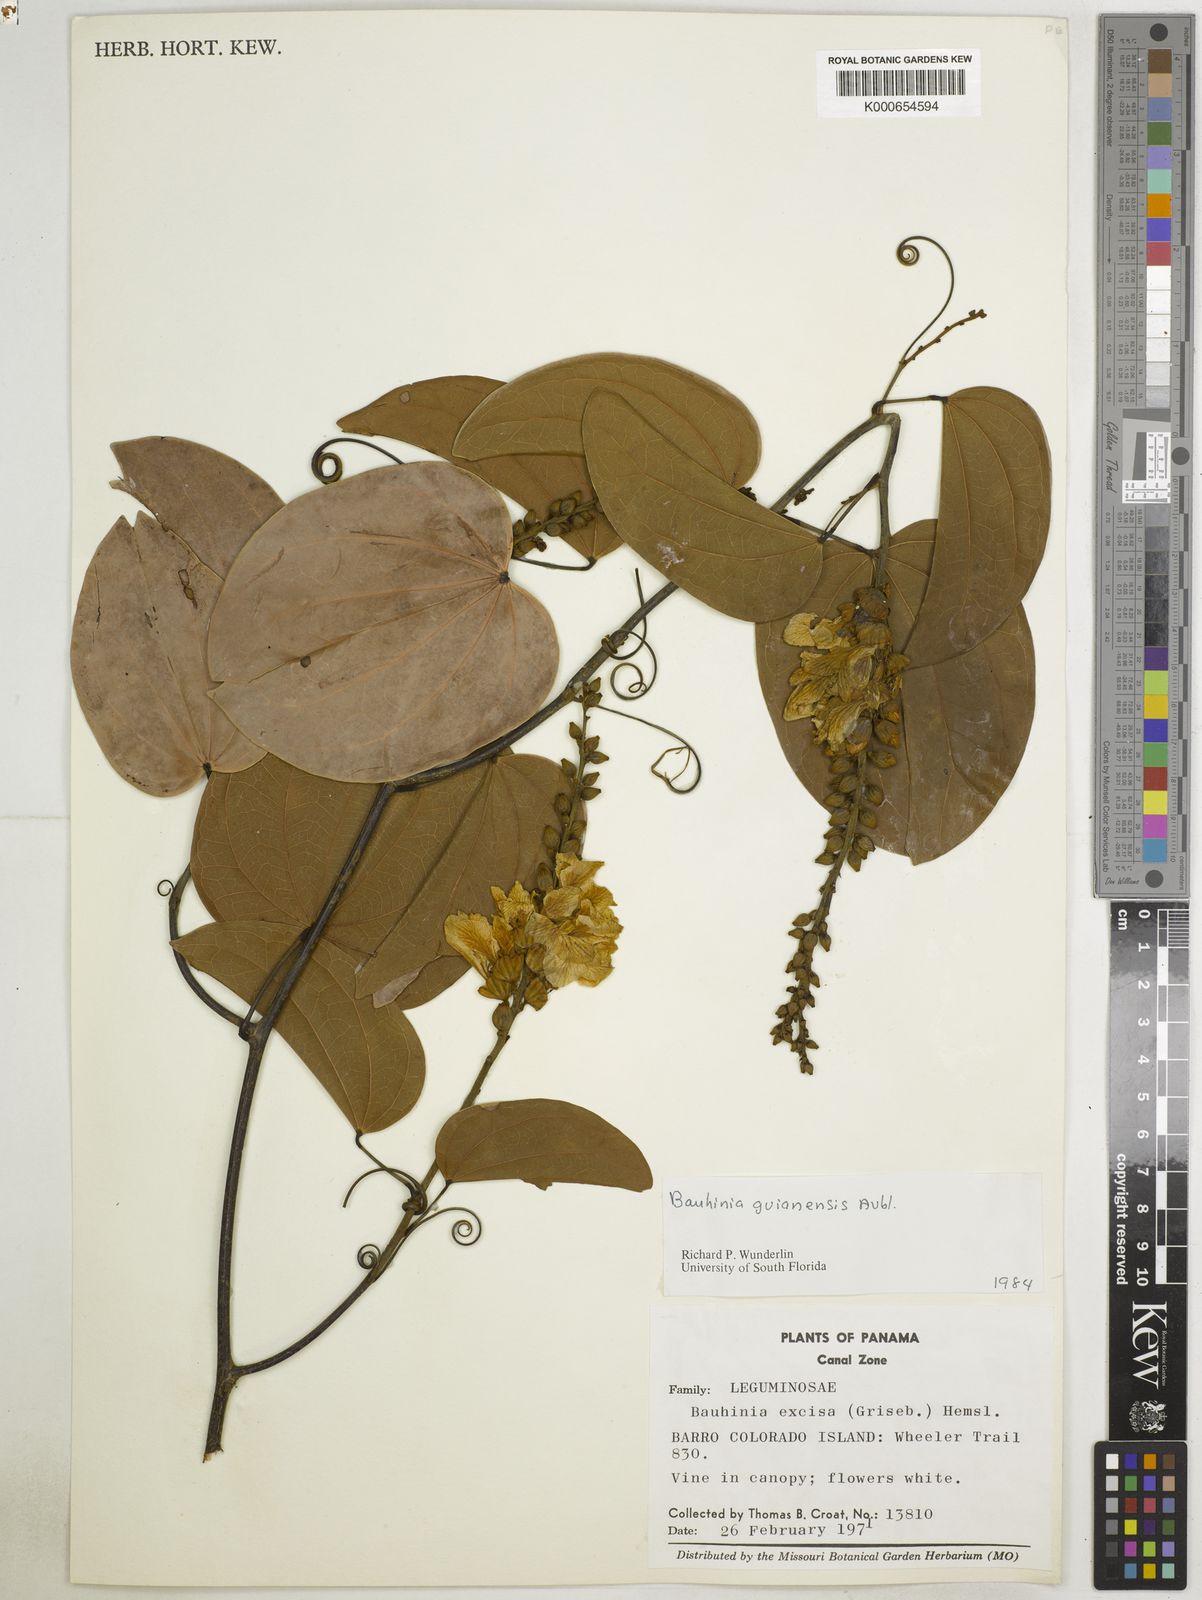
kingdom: Plantae
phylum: Tracheophyta
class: Magnoliopsida
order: Fabales
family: Fabaceae
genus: Schnella
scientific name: Schnella guianensis
